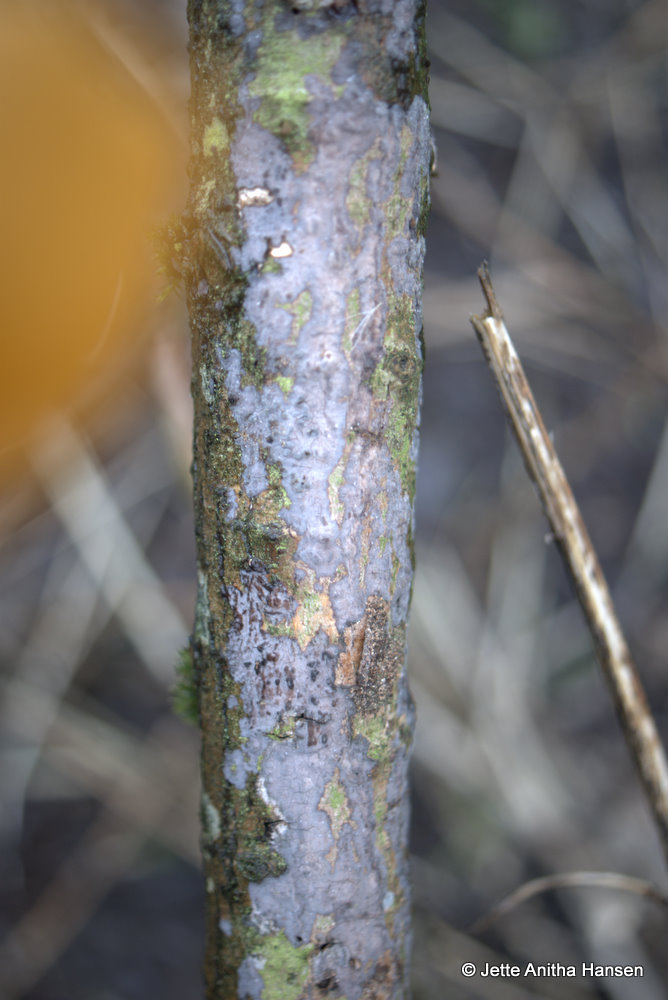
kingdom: Fungi
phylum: Basidiomycota
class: Agaricomycetes
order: Russulales
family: Peniophoraceae
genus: Peniophora
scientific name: Peniophora cinerea
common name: grå voksskind
